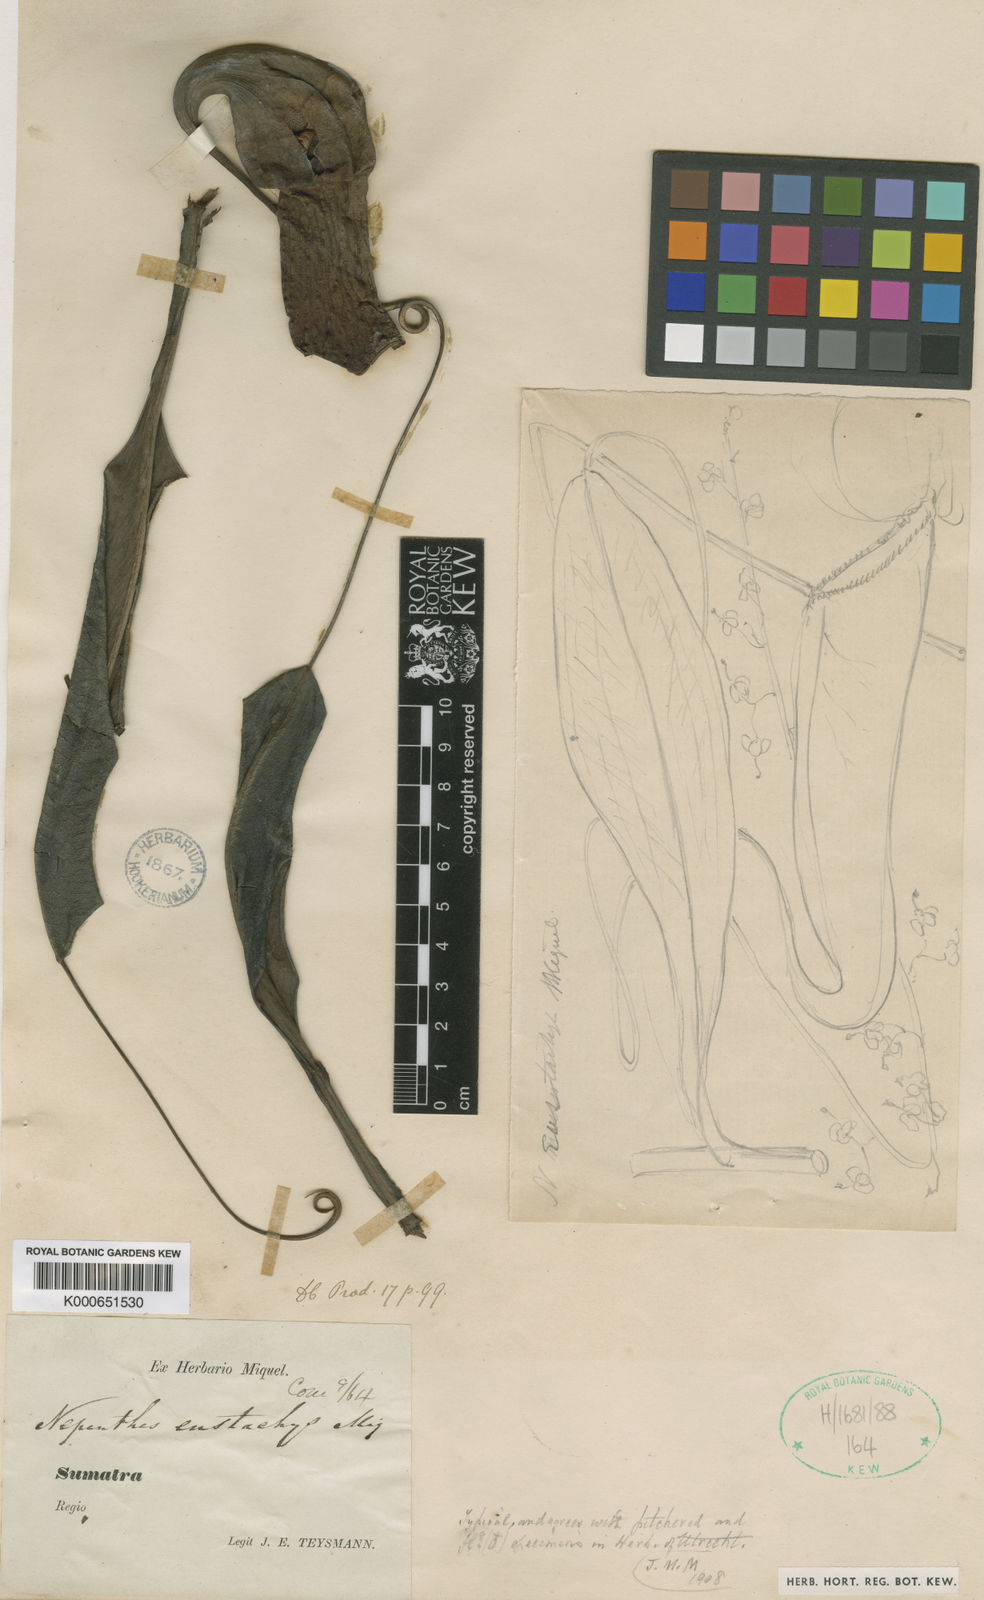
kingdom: Plantae
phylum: Tracheophyta
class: Magnoliopsida
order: Caryophyllales
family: Nepenthaceae
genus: Nepenthes
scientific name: Nepenthes
